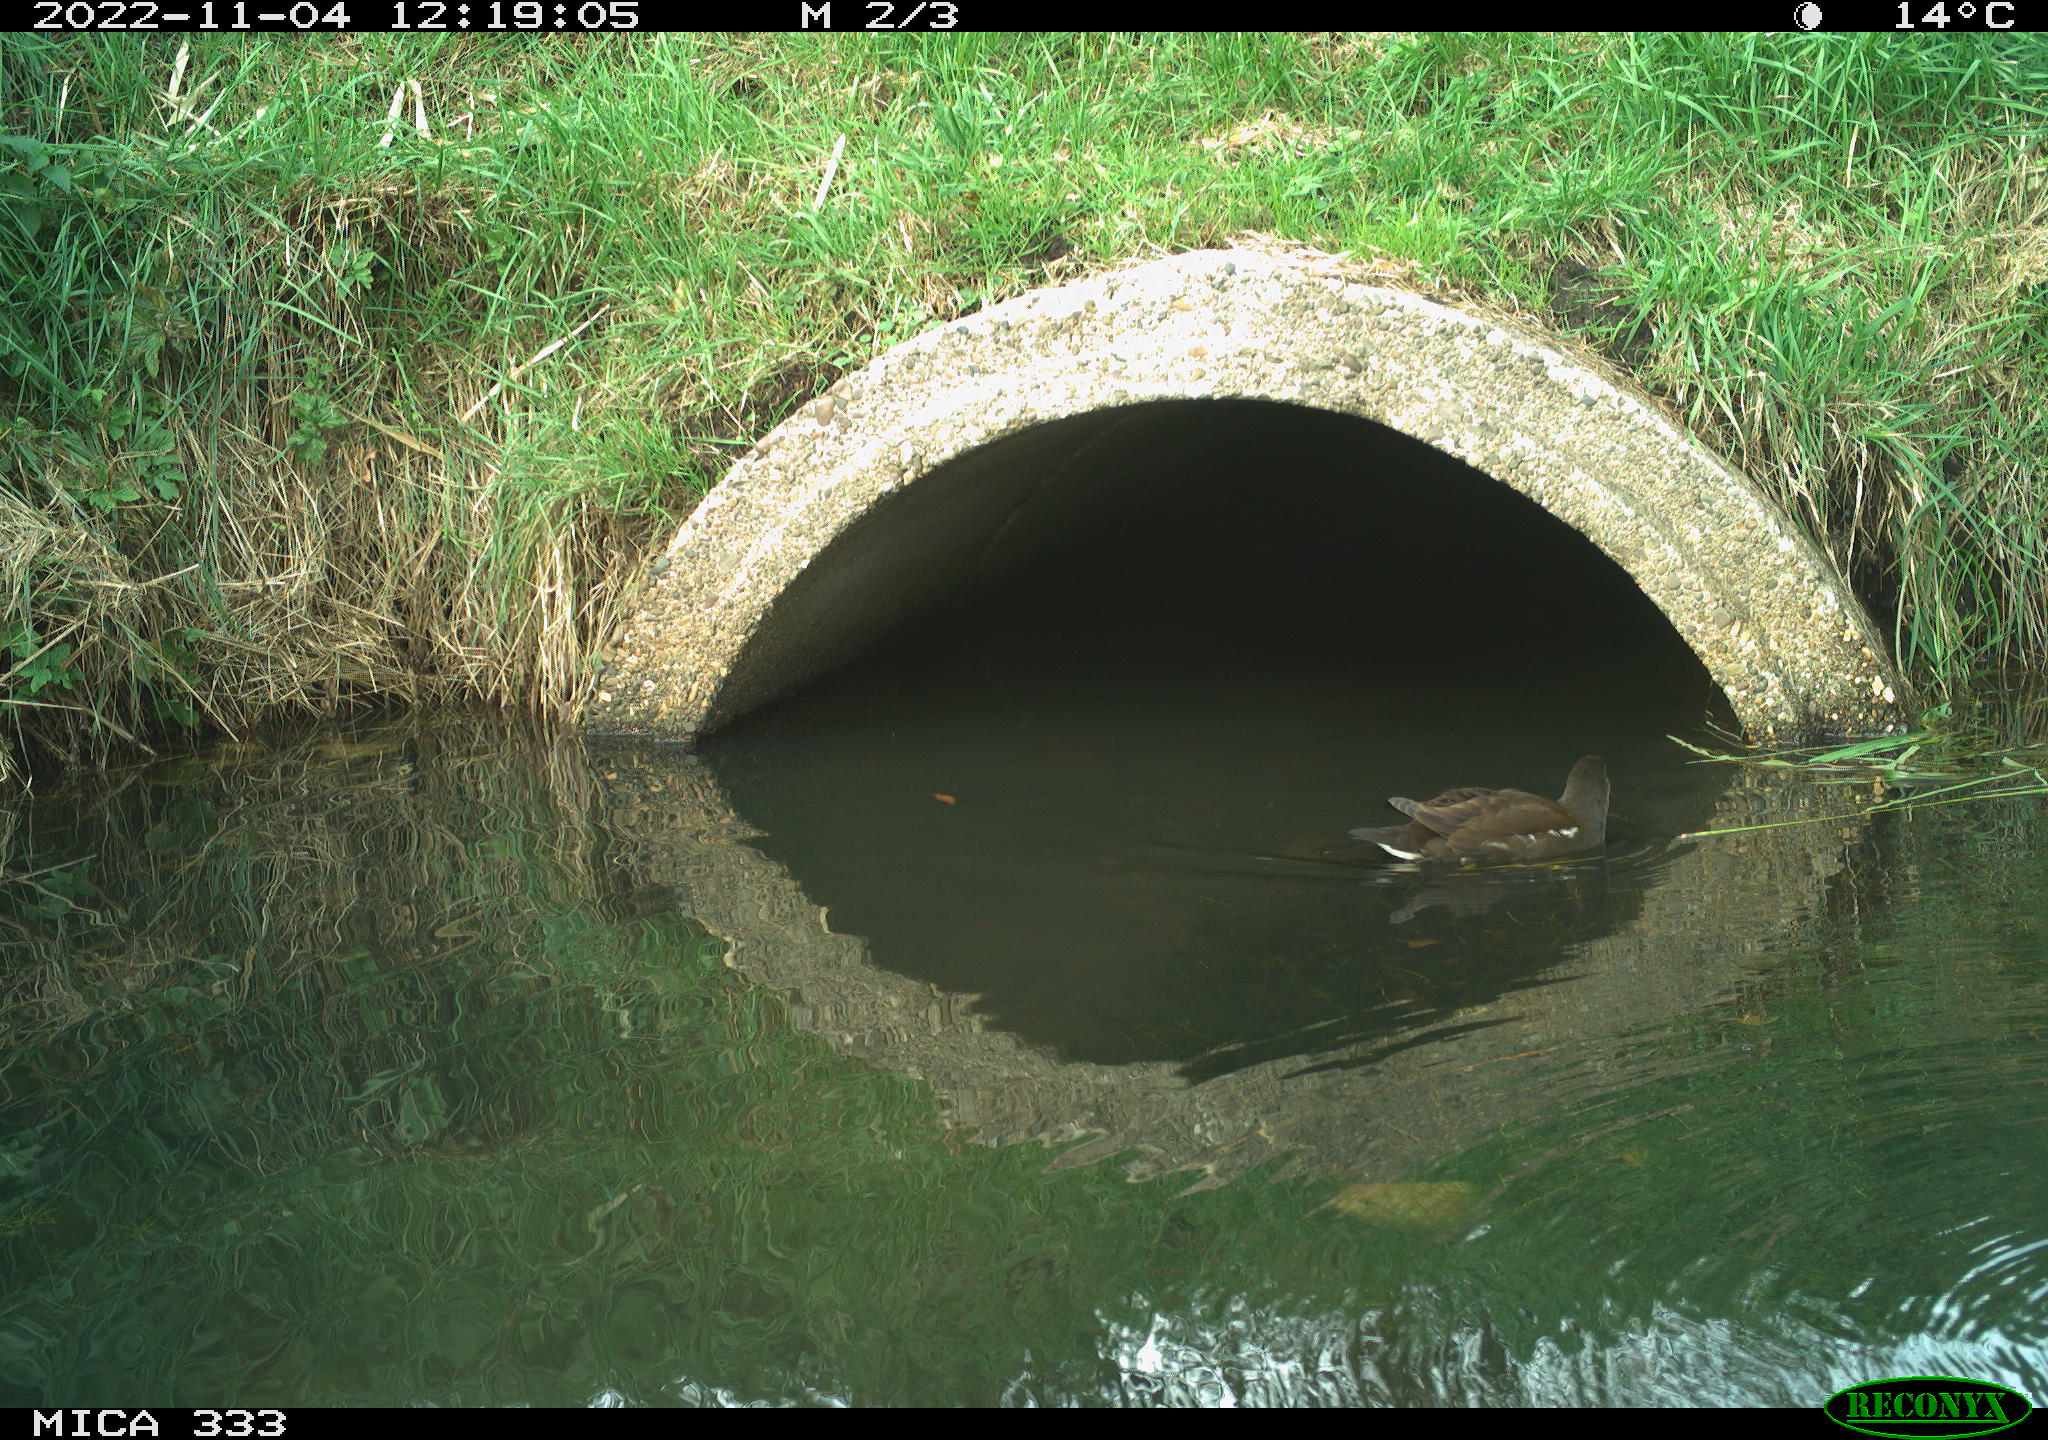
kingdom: Animalia
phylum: Chordata
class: Aves
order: Gruiformes
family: Rallidae
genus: Gallinula
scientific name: Gallinula chloropus
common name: Common moorhen
